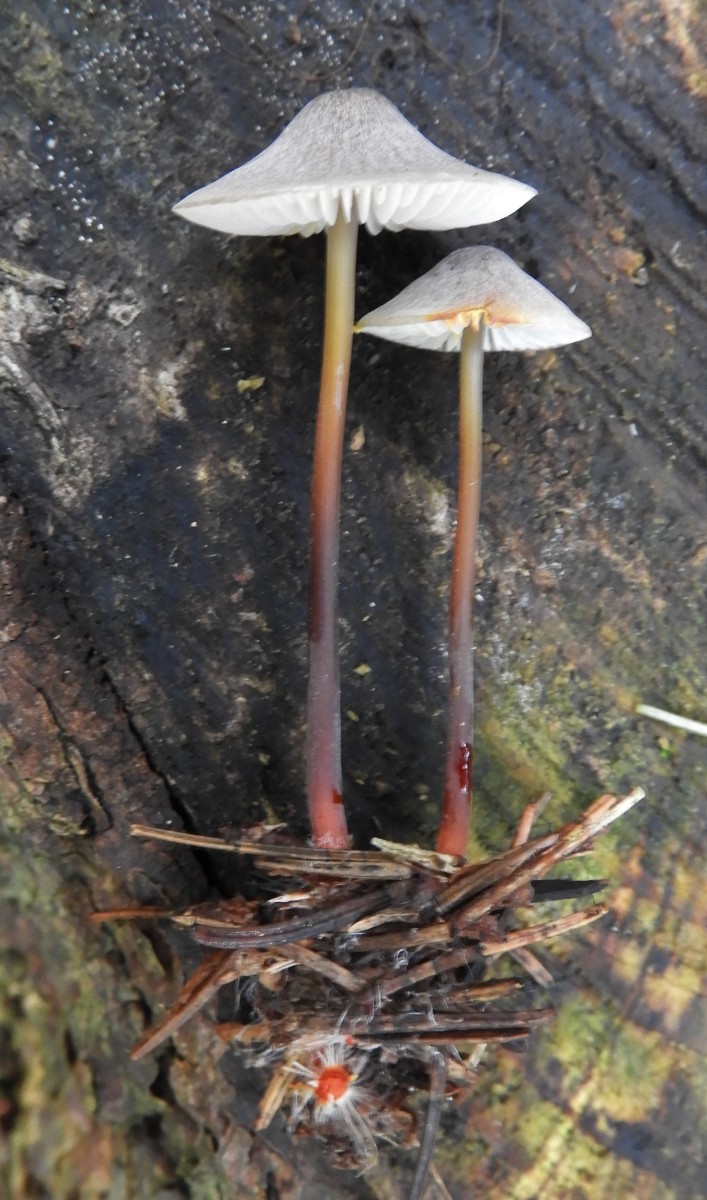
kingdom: Fungi
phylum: Basidiomycota
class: Agaricomycetes
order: Agaricales
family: Mycenaceae
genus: Mycena
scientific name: Mycena crocata
